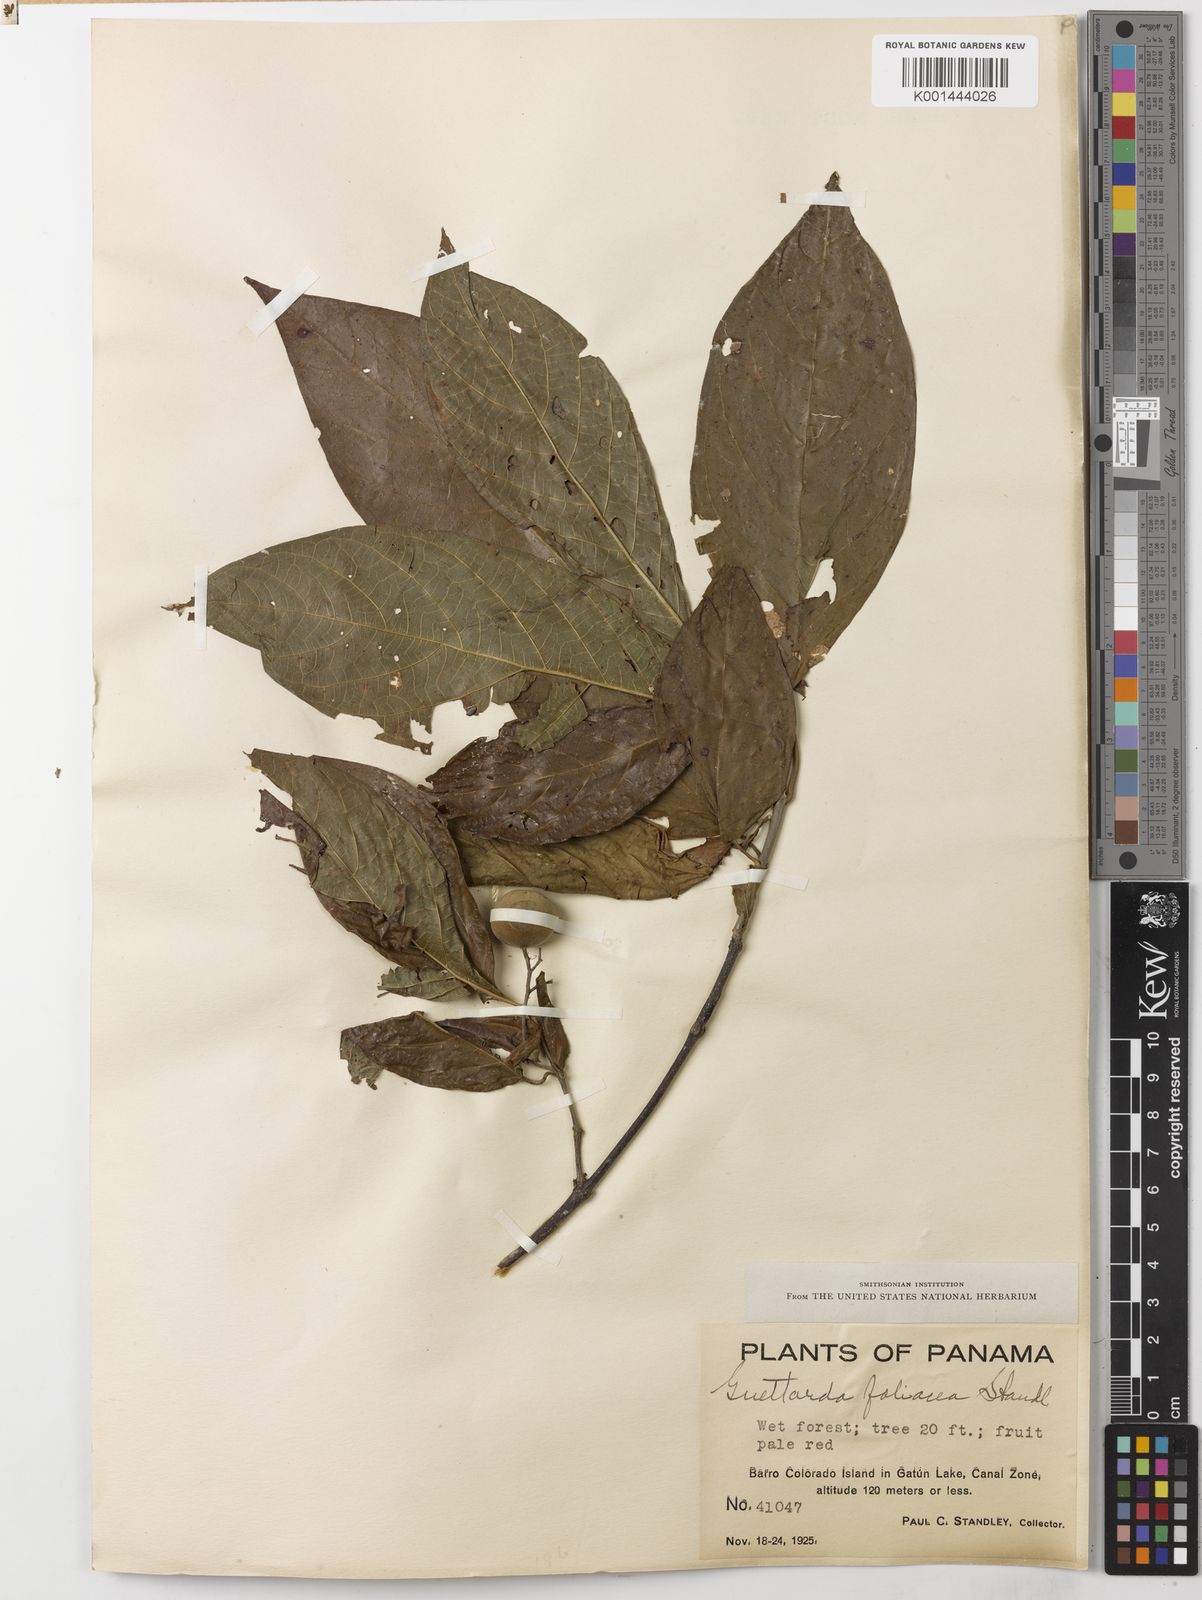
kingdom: Plantae
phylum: Tracheophyta
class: Magnoliopsida
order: Gentianales
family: Rubiaceae
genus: Guettarda
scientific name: Guettarda foliacea
